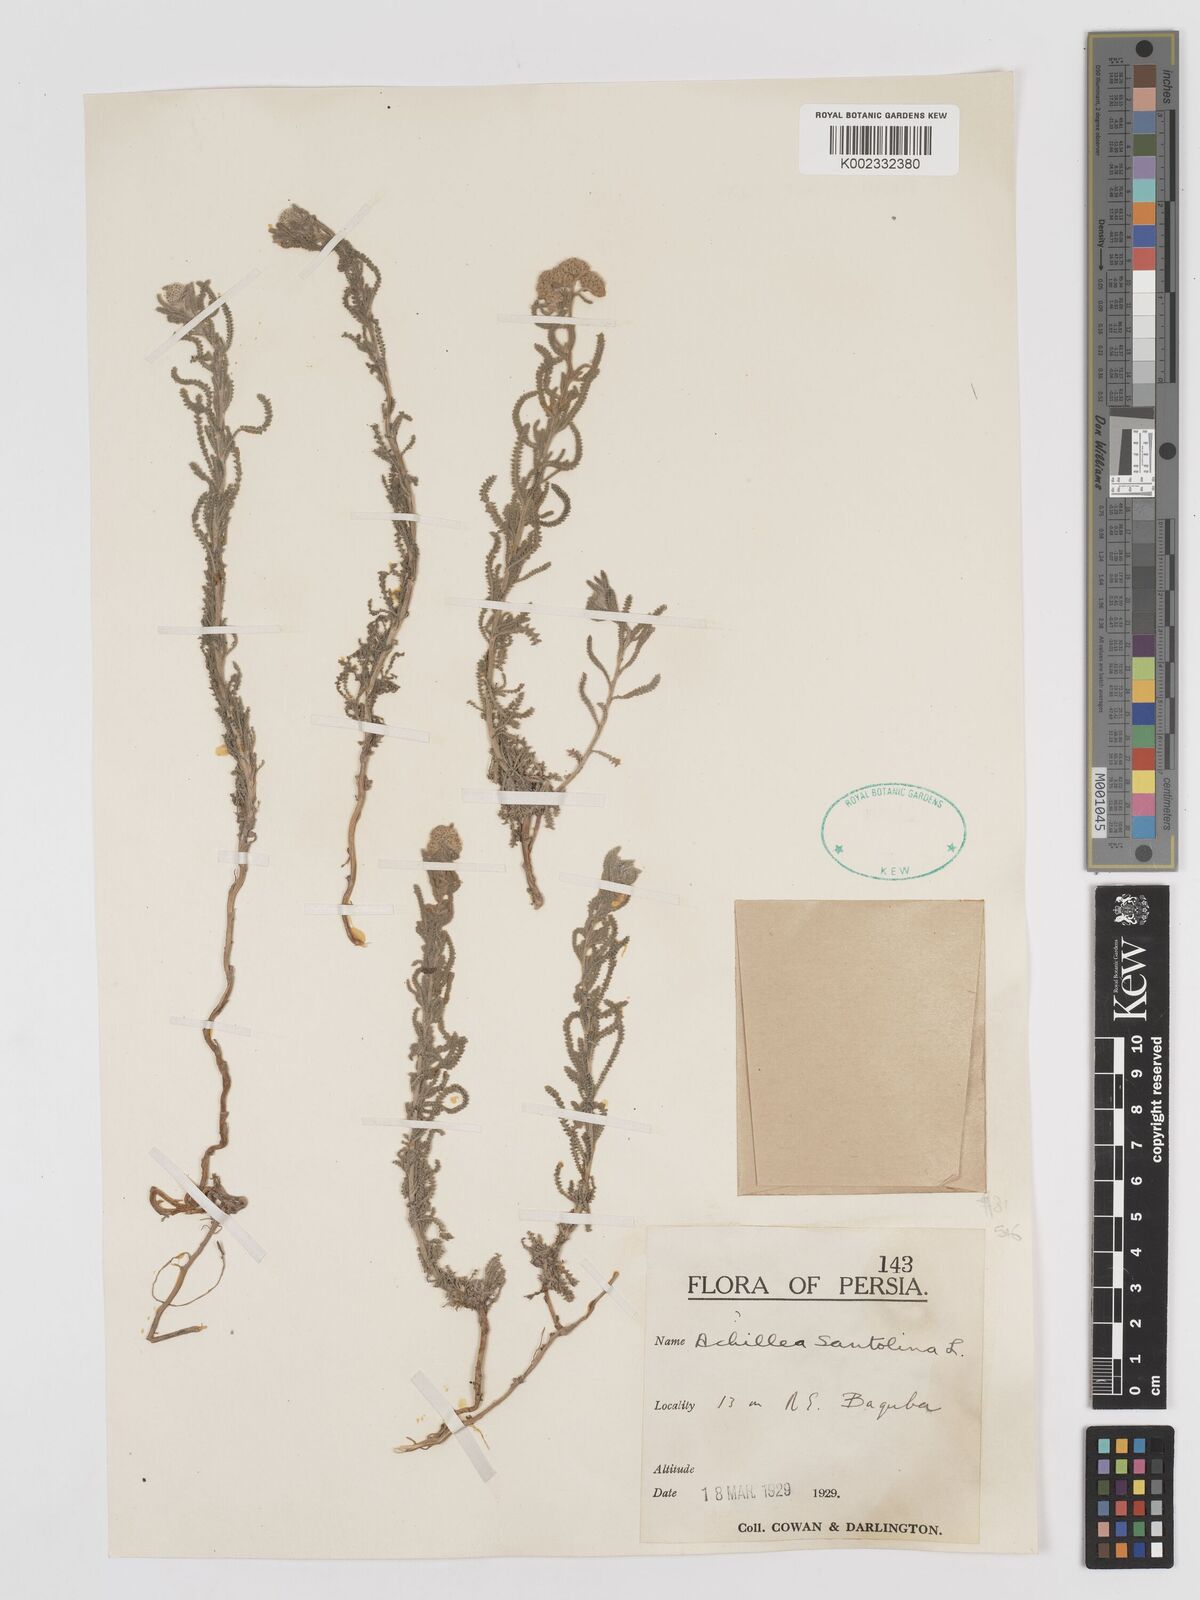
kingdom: Plantae
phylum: Tracheophyta
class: Magnoliopsida
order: Asterales
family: Asteraceae
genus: Achillea
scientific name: Achillea cretica
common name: Chamomile-leaved lavender-cotton
